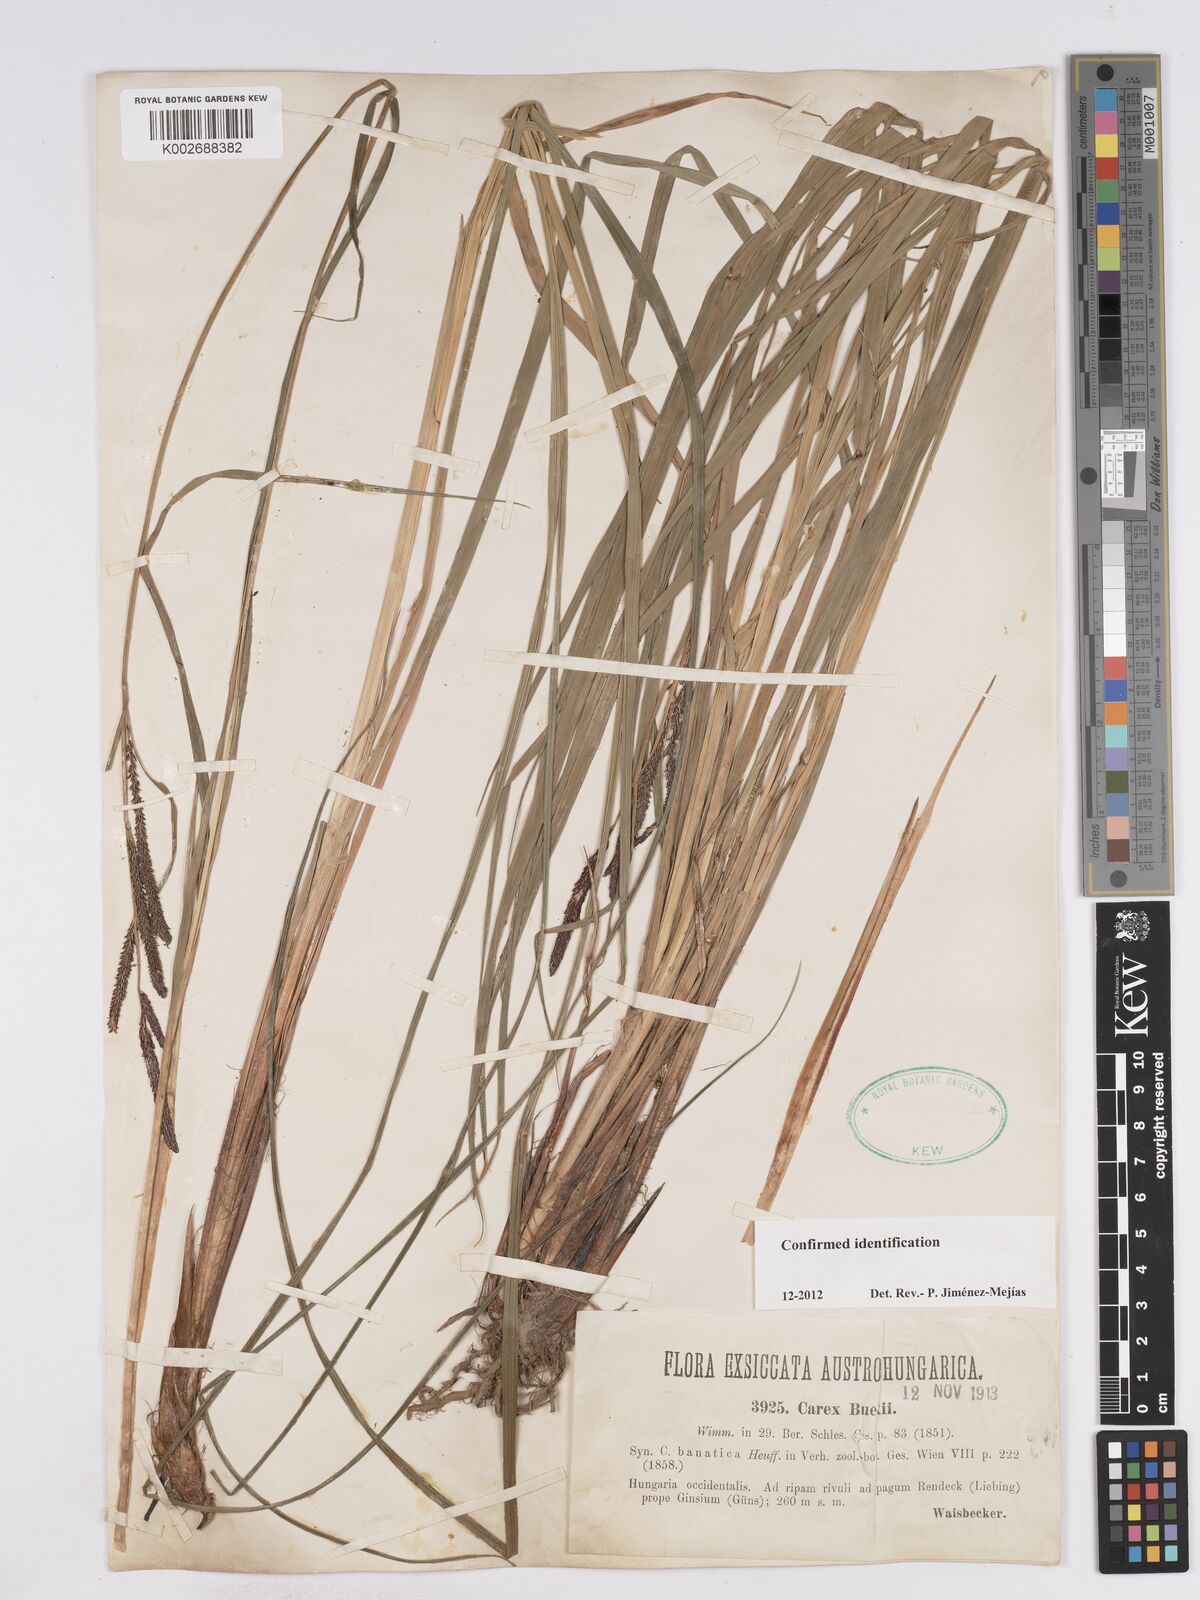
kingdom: Plantae
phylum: Tracheophyta
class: Liliopsida
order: Poales
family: Cyperaceae
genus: Carex
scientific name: Carex buekii
